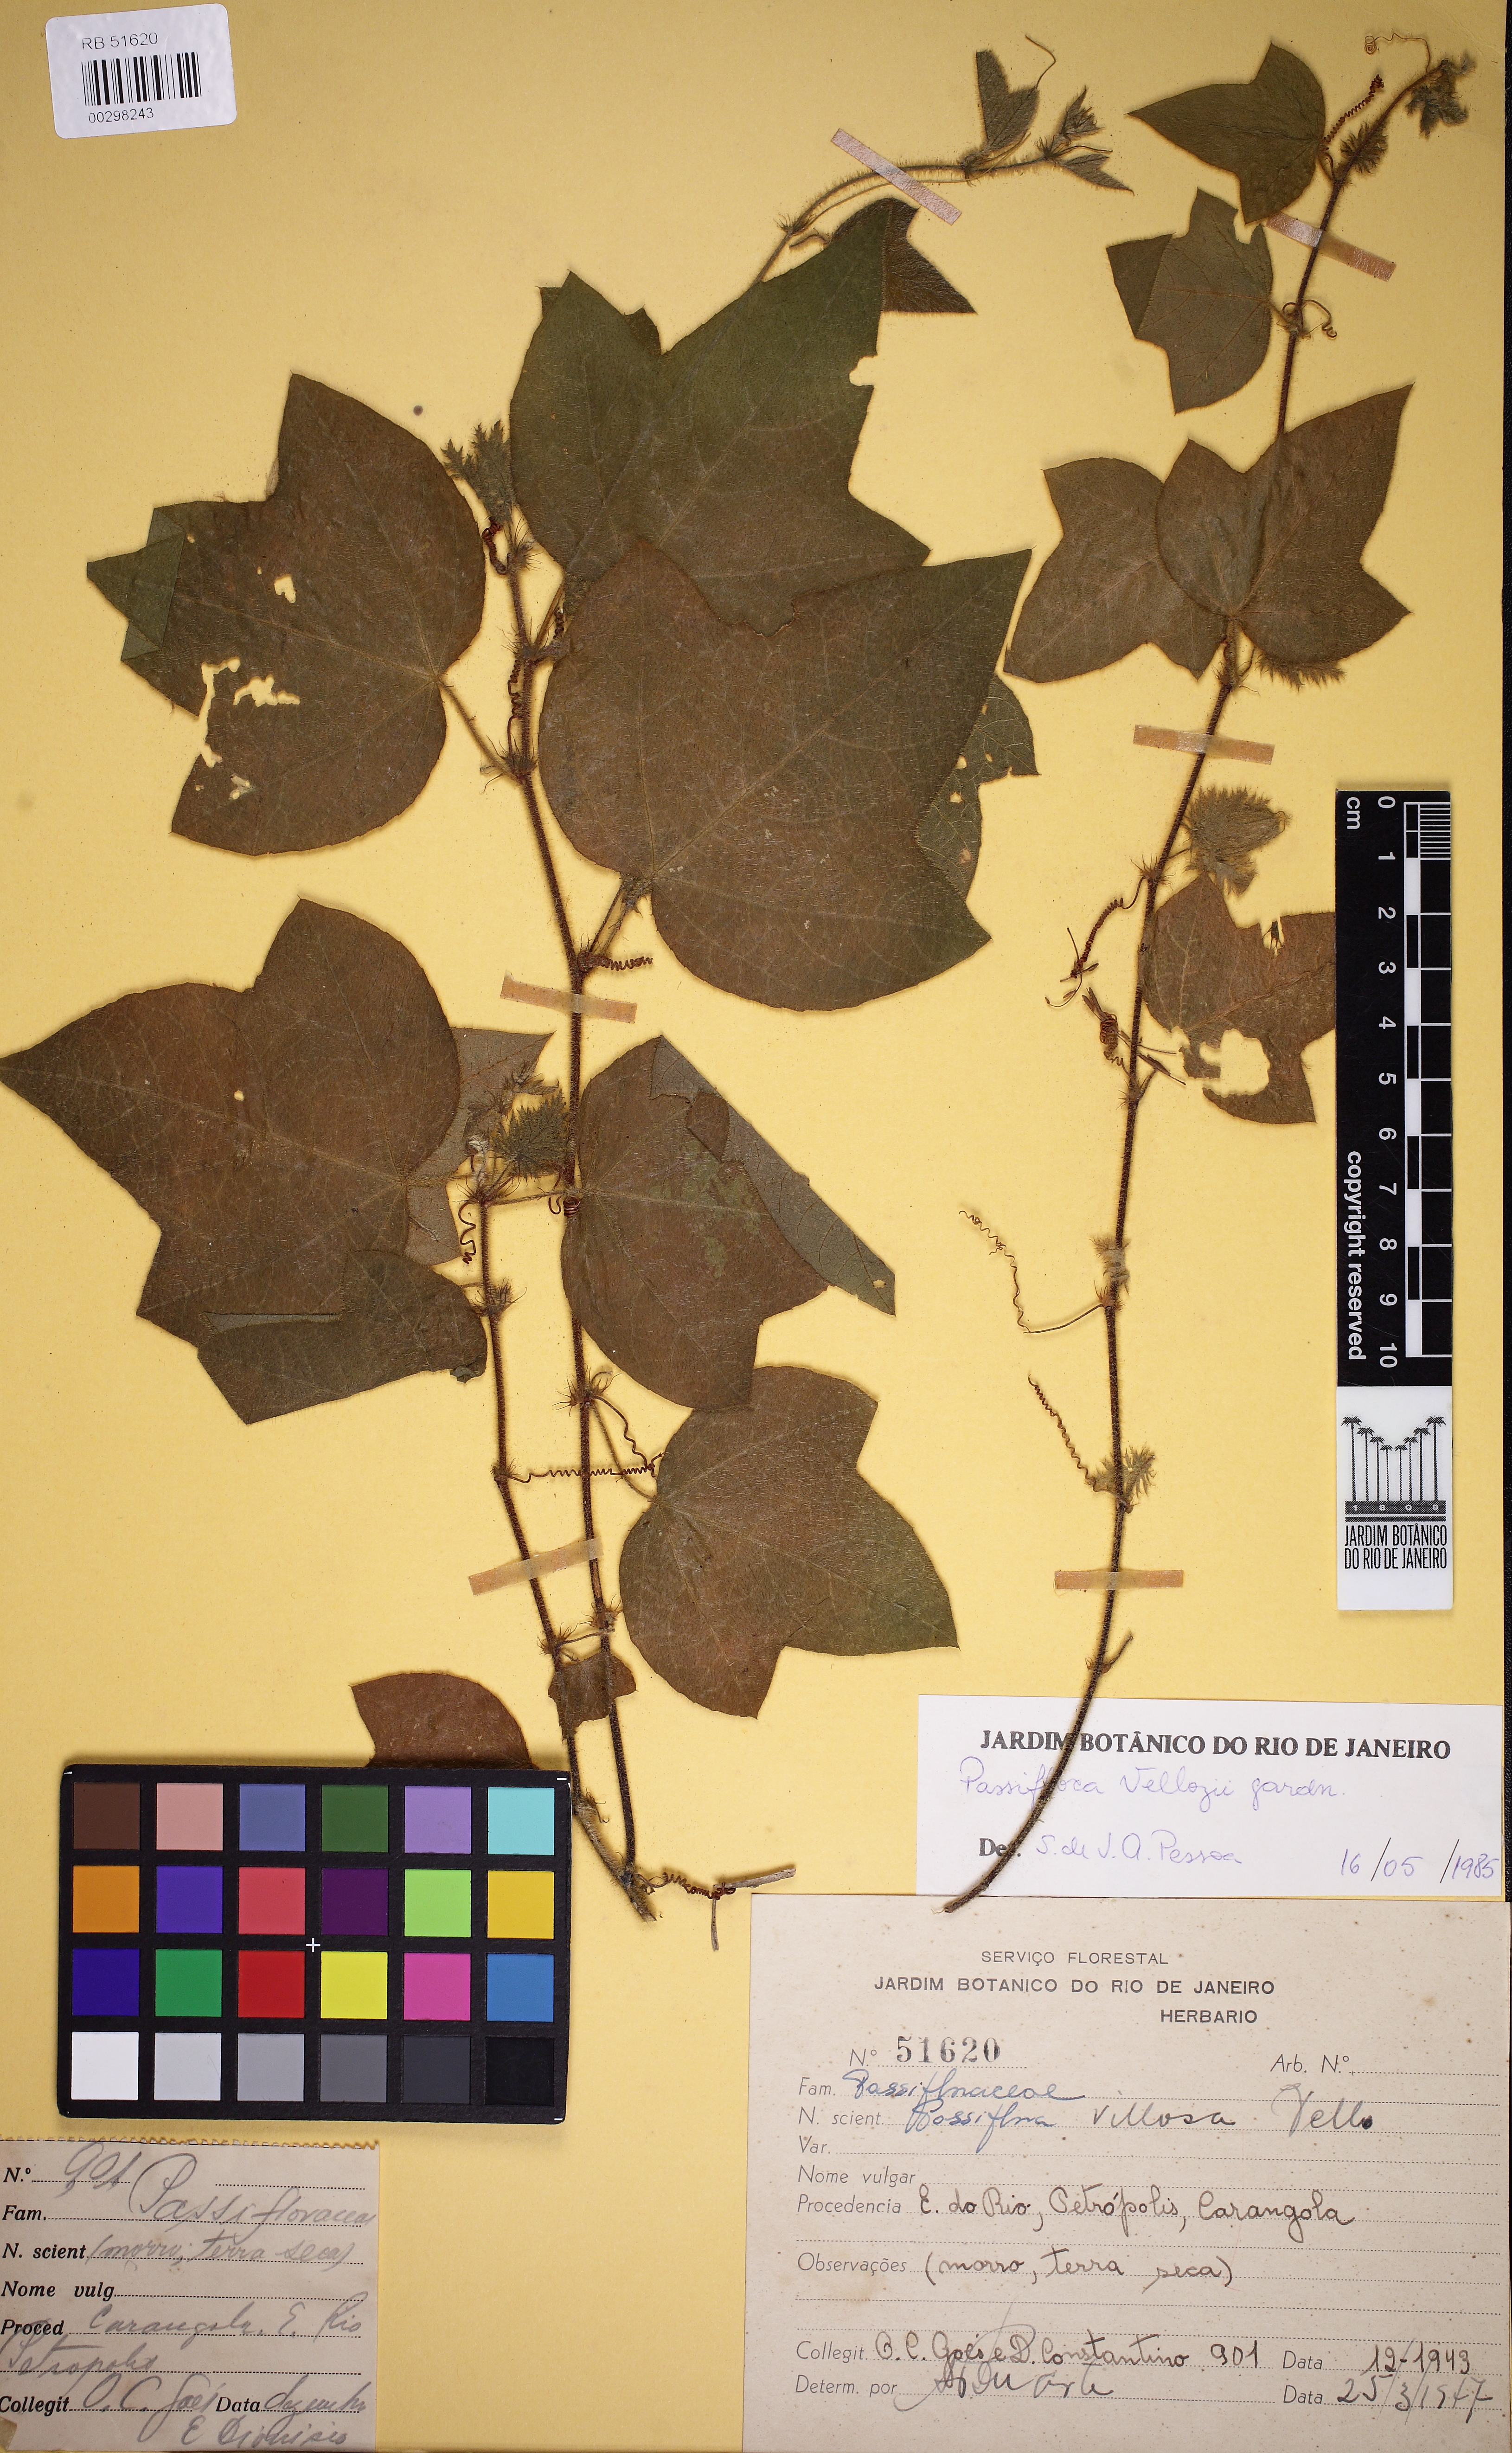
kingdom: Plantae
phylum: Tracheophyta
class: Magnoliopsida
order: Malpighiales
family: Passifloraceae
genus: Passiflora
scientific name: Passiflora vellozii
